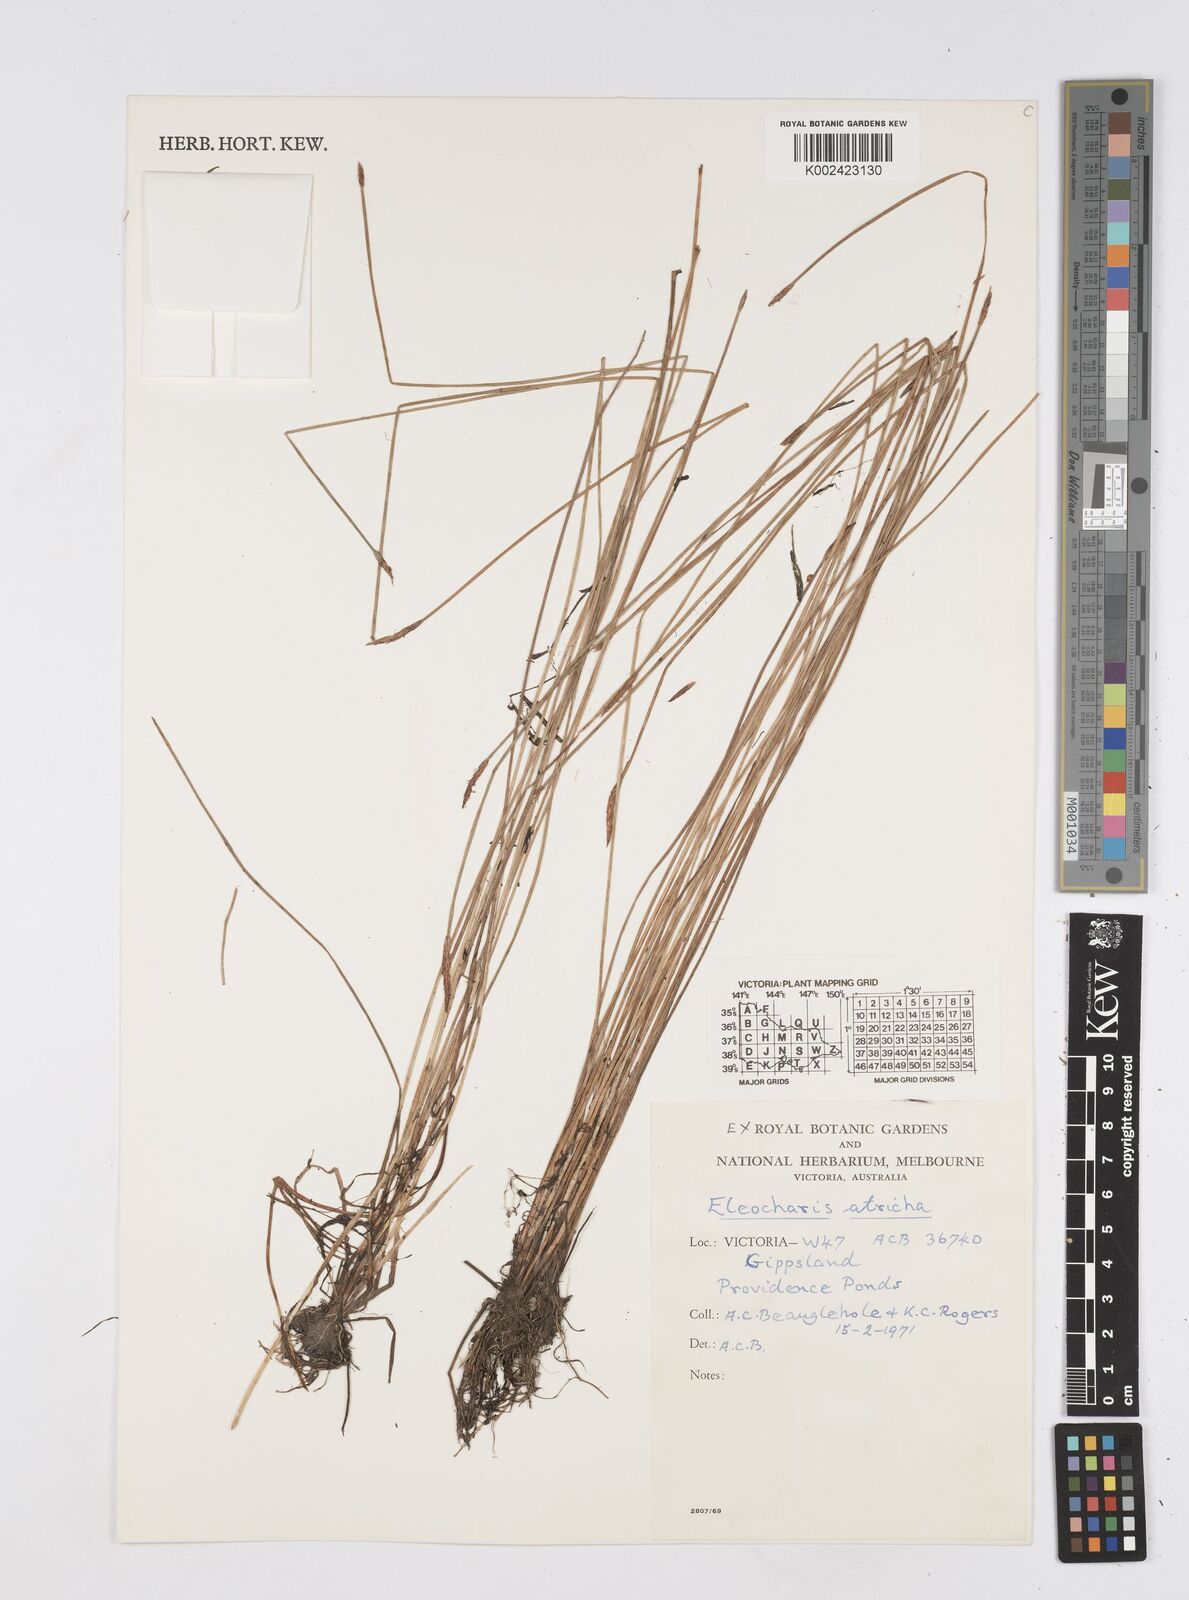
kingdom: Plantae
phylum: Tracheophyta
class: Liliopsida
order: Poales
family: Cyperaceae
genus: Eleocharis
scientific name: Eleocharis acicularis
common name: Needle spike-rush
